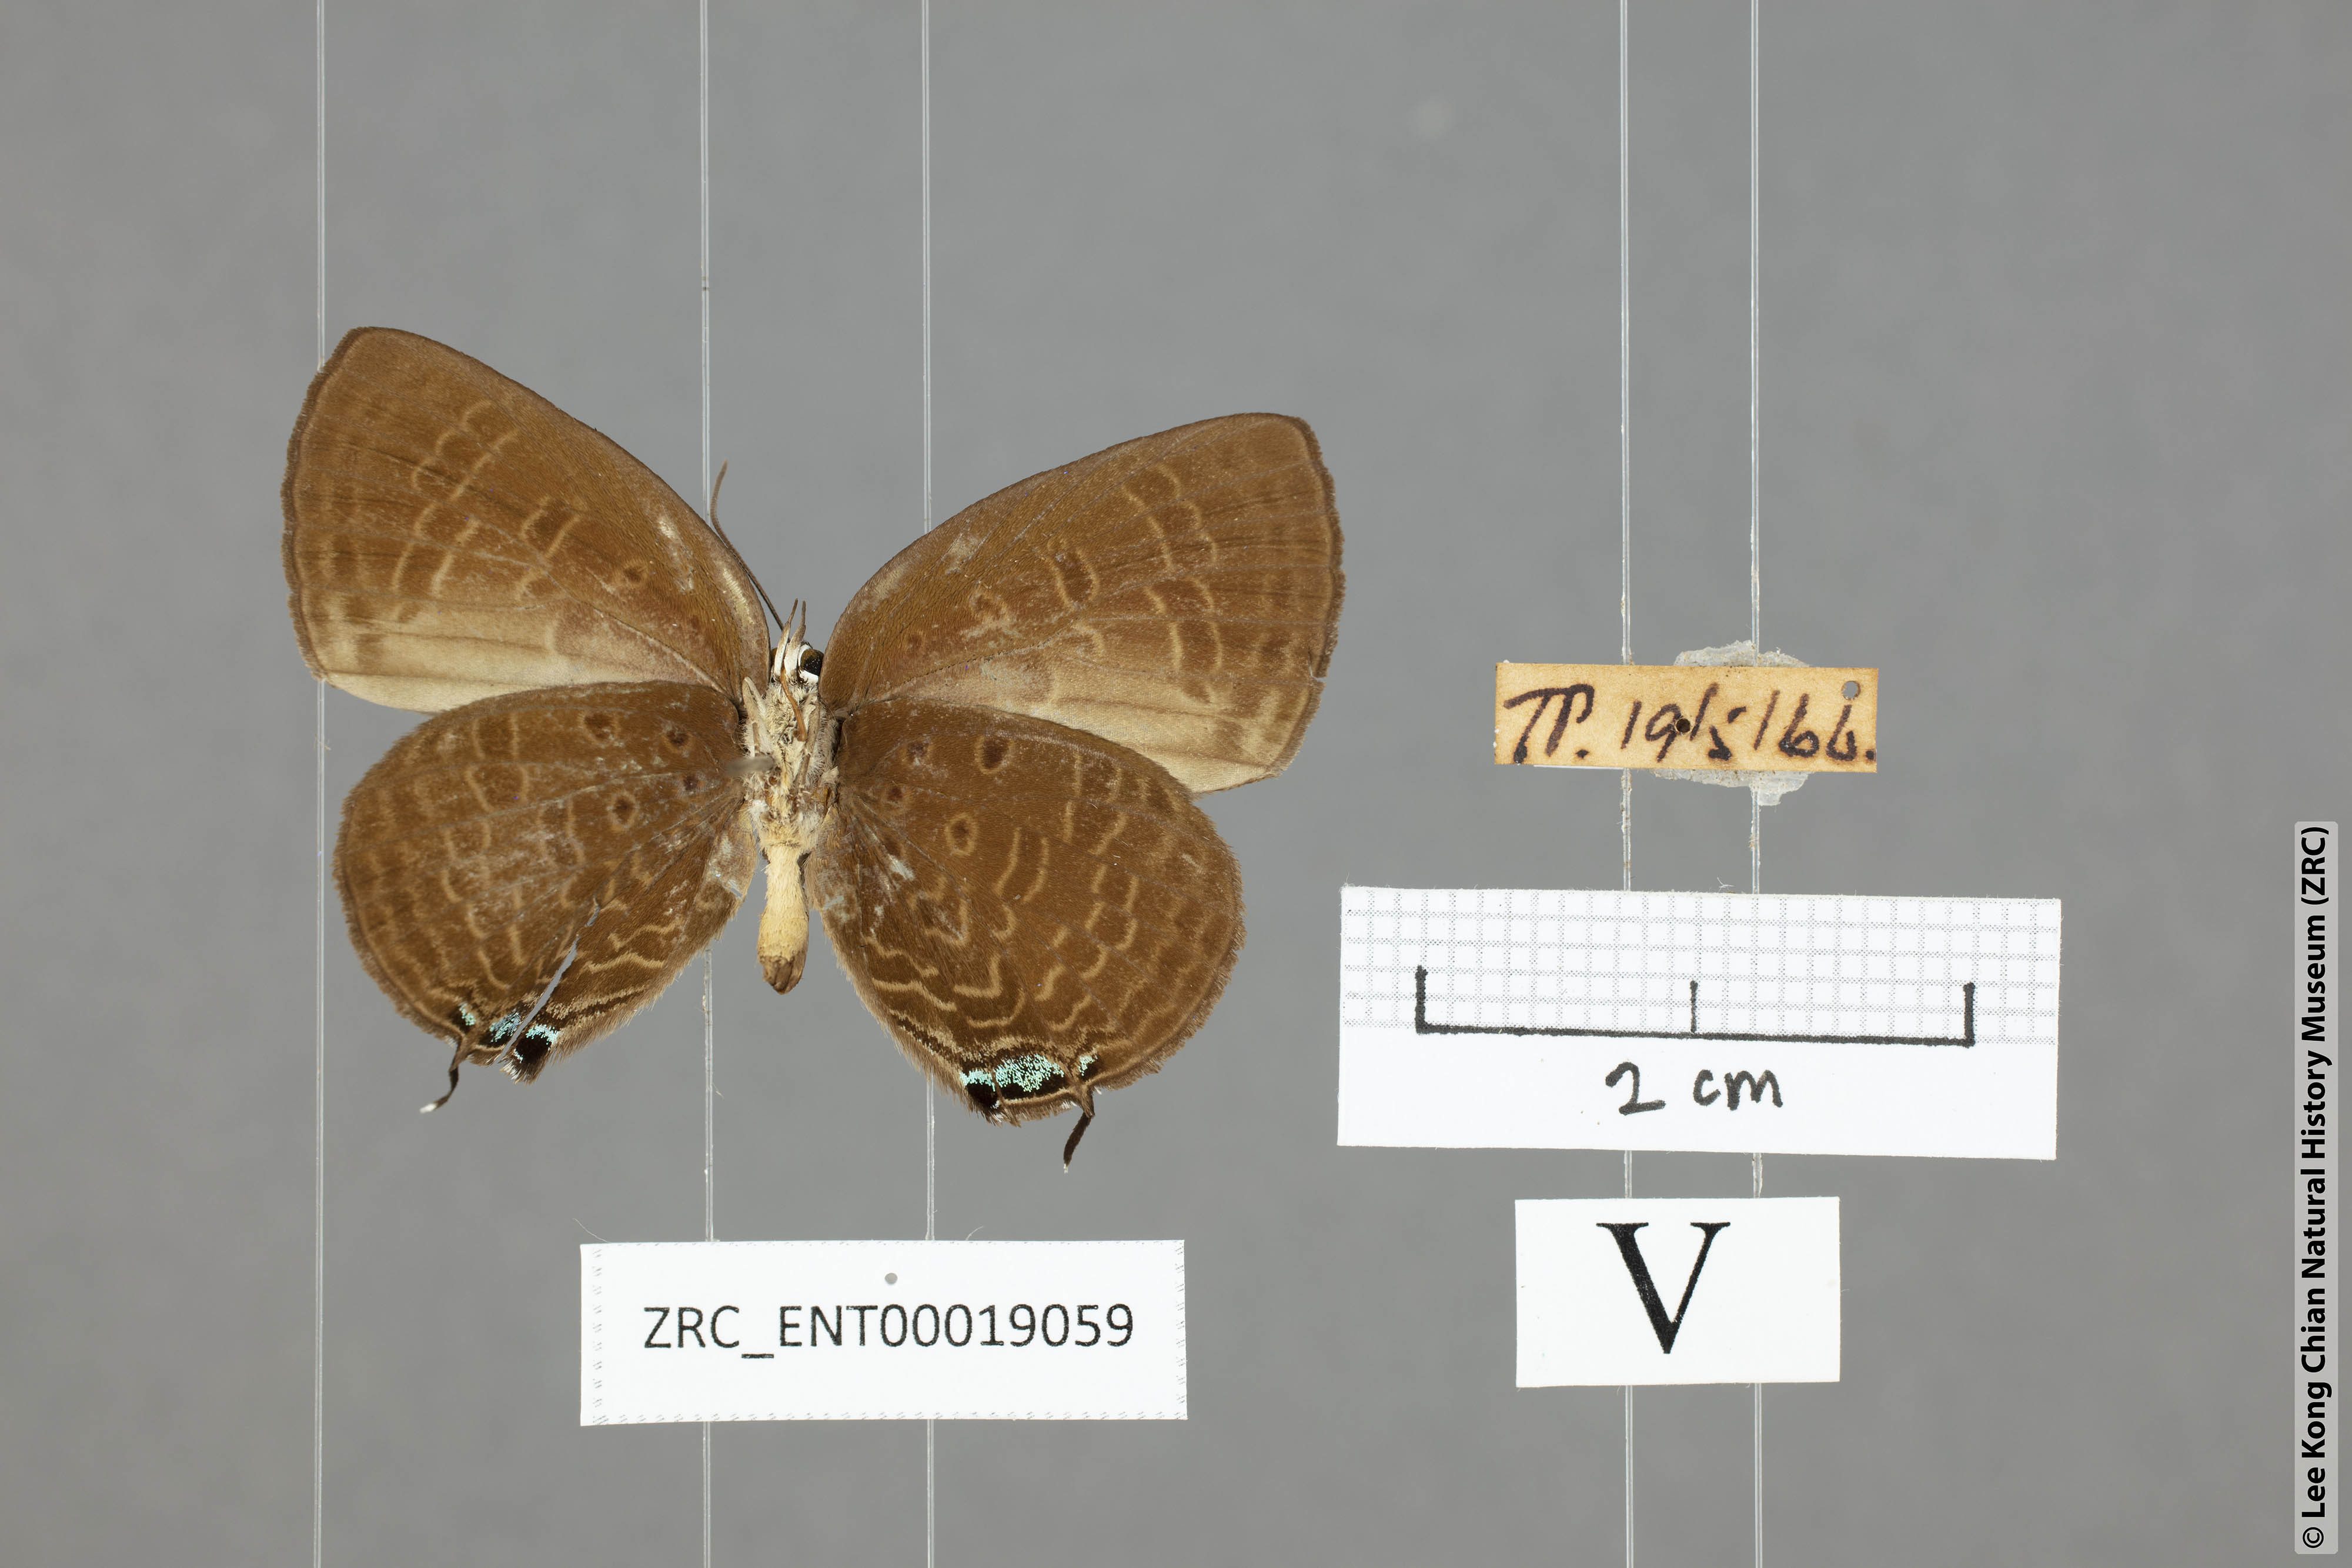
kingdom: Animalia
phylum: Arthropoda
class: Insecta
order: Lepidoptera
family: Lycaenidae
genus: Arhopala
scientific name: Arhopala agrata
